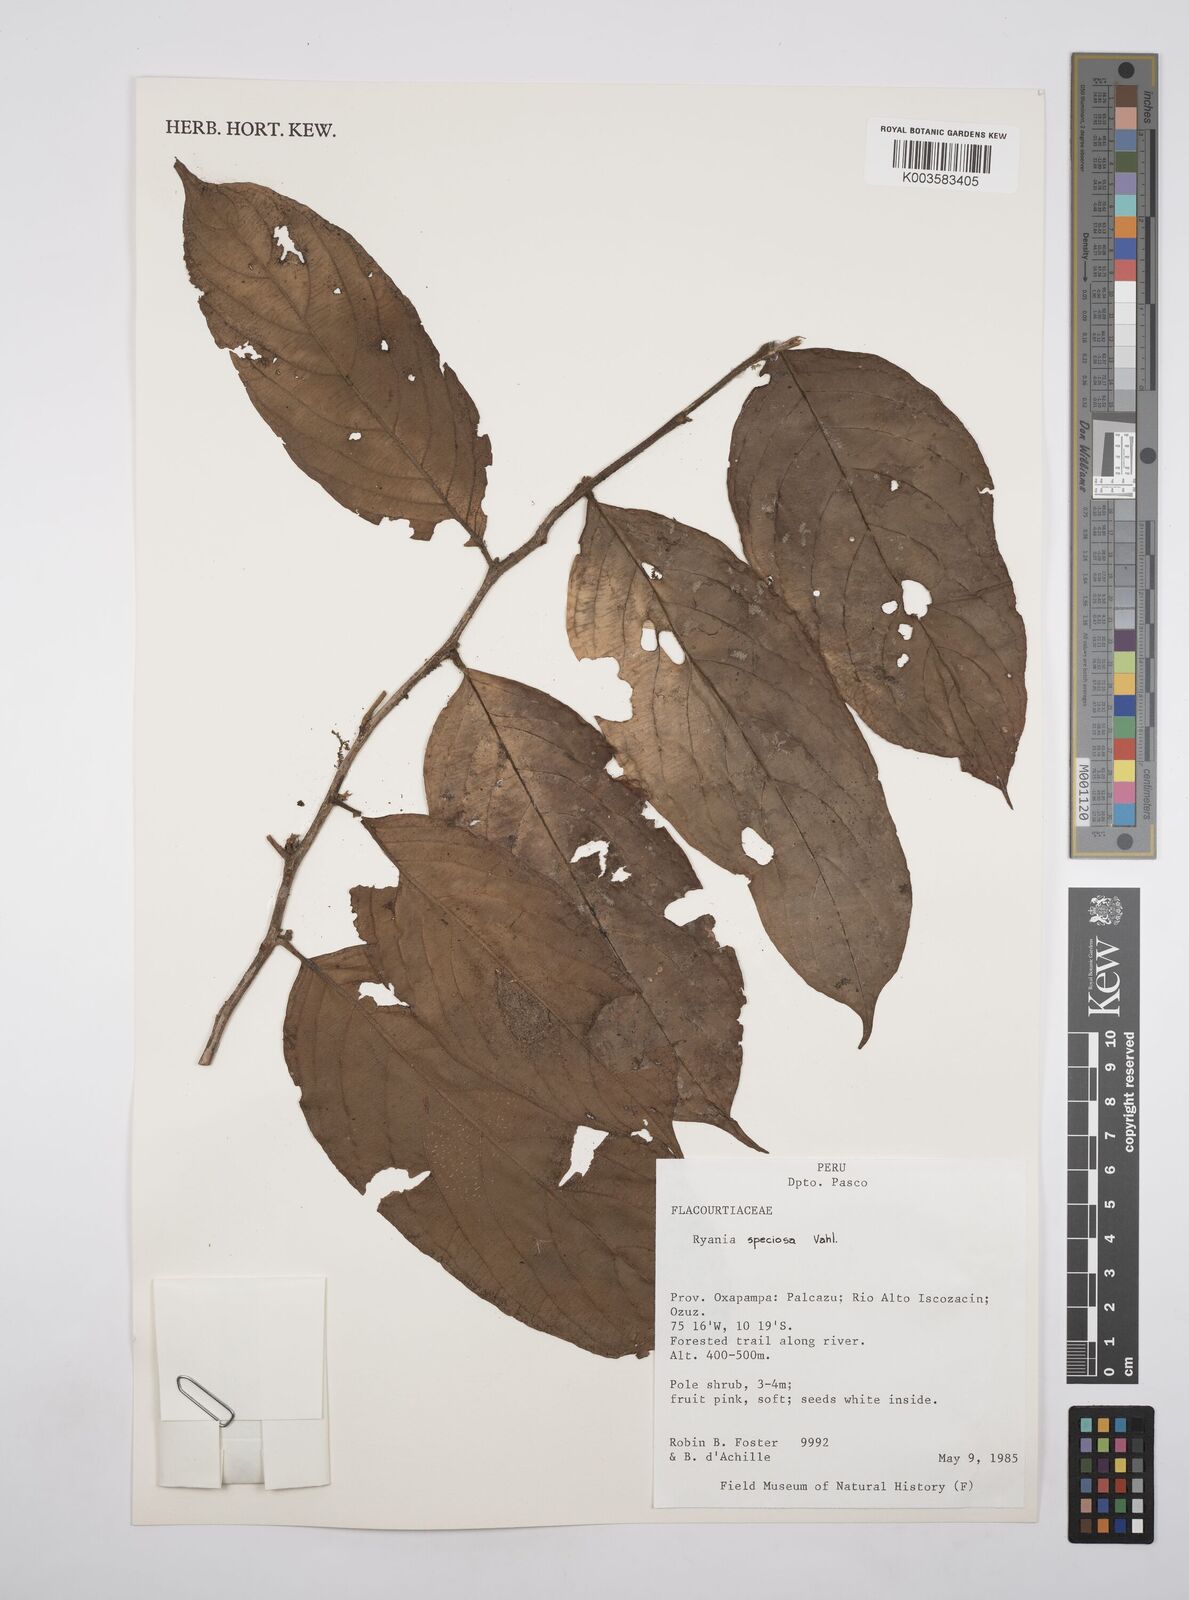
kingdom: Plantae
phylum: Tracheophyta
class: Magnoliopsida
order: Malpighiales
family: Salicaceae
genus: Ryania
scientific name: Ryania speciosa
